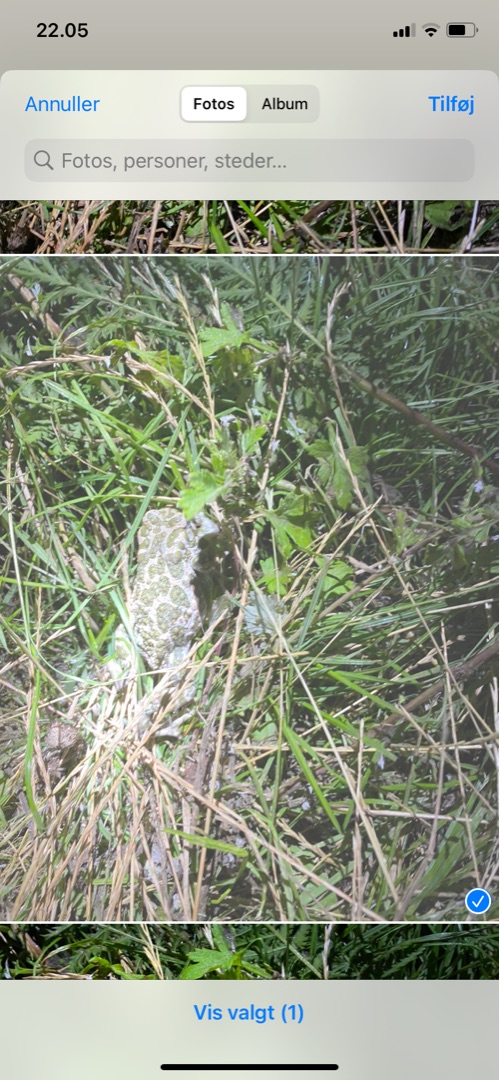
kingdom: Animalia
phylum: Chordata
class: Amphibia
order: Anura
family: Bufonidae
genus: Bufotes
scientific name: Bufotes viridis
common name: Grønbroget tudse
